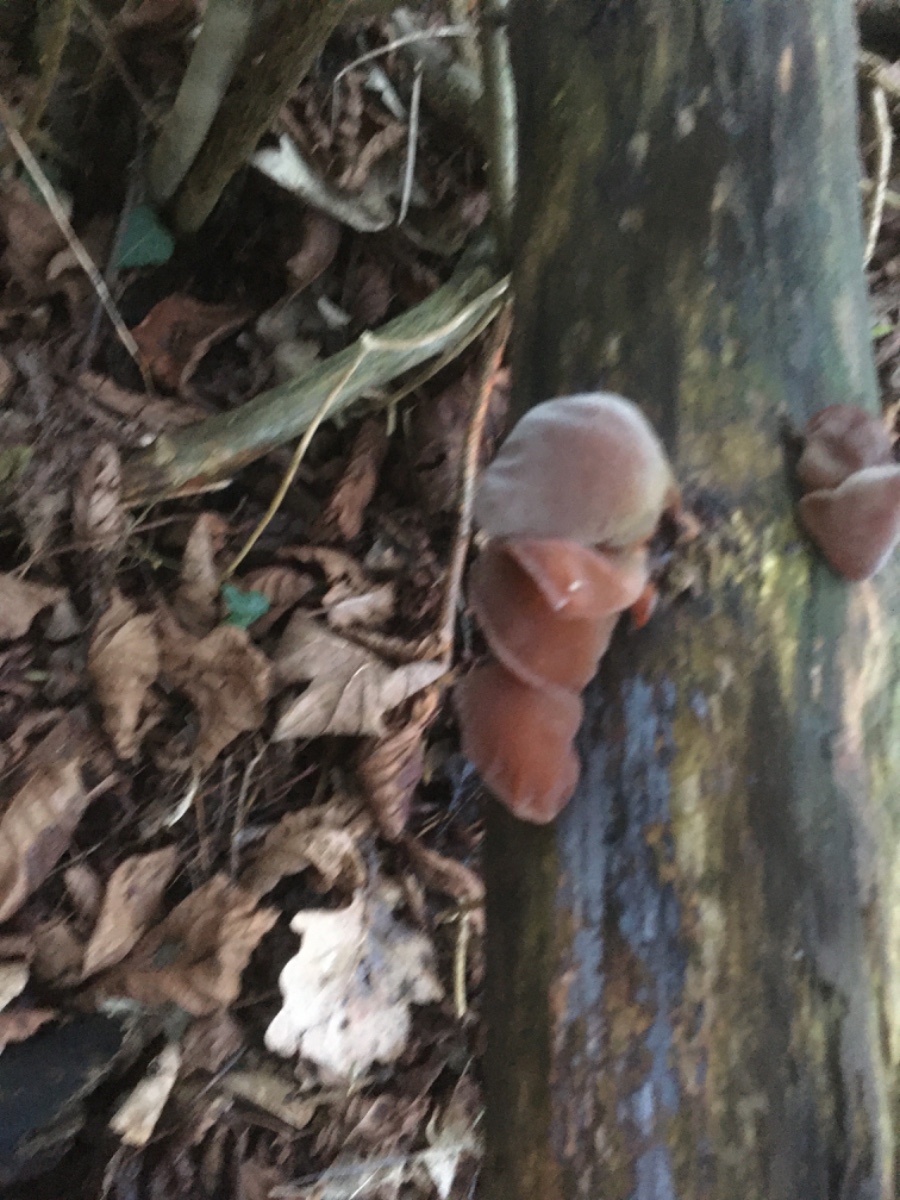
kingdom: Fungi
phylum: Basidiomycota
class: Agaricomycetes
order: Auriculariales
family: Auriculariaceae
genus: Auricularia
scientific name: Auricularia auricula-judae
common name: almindelig judasøre
